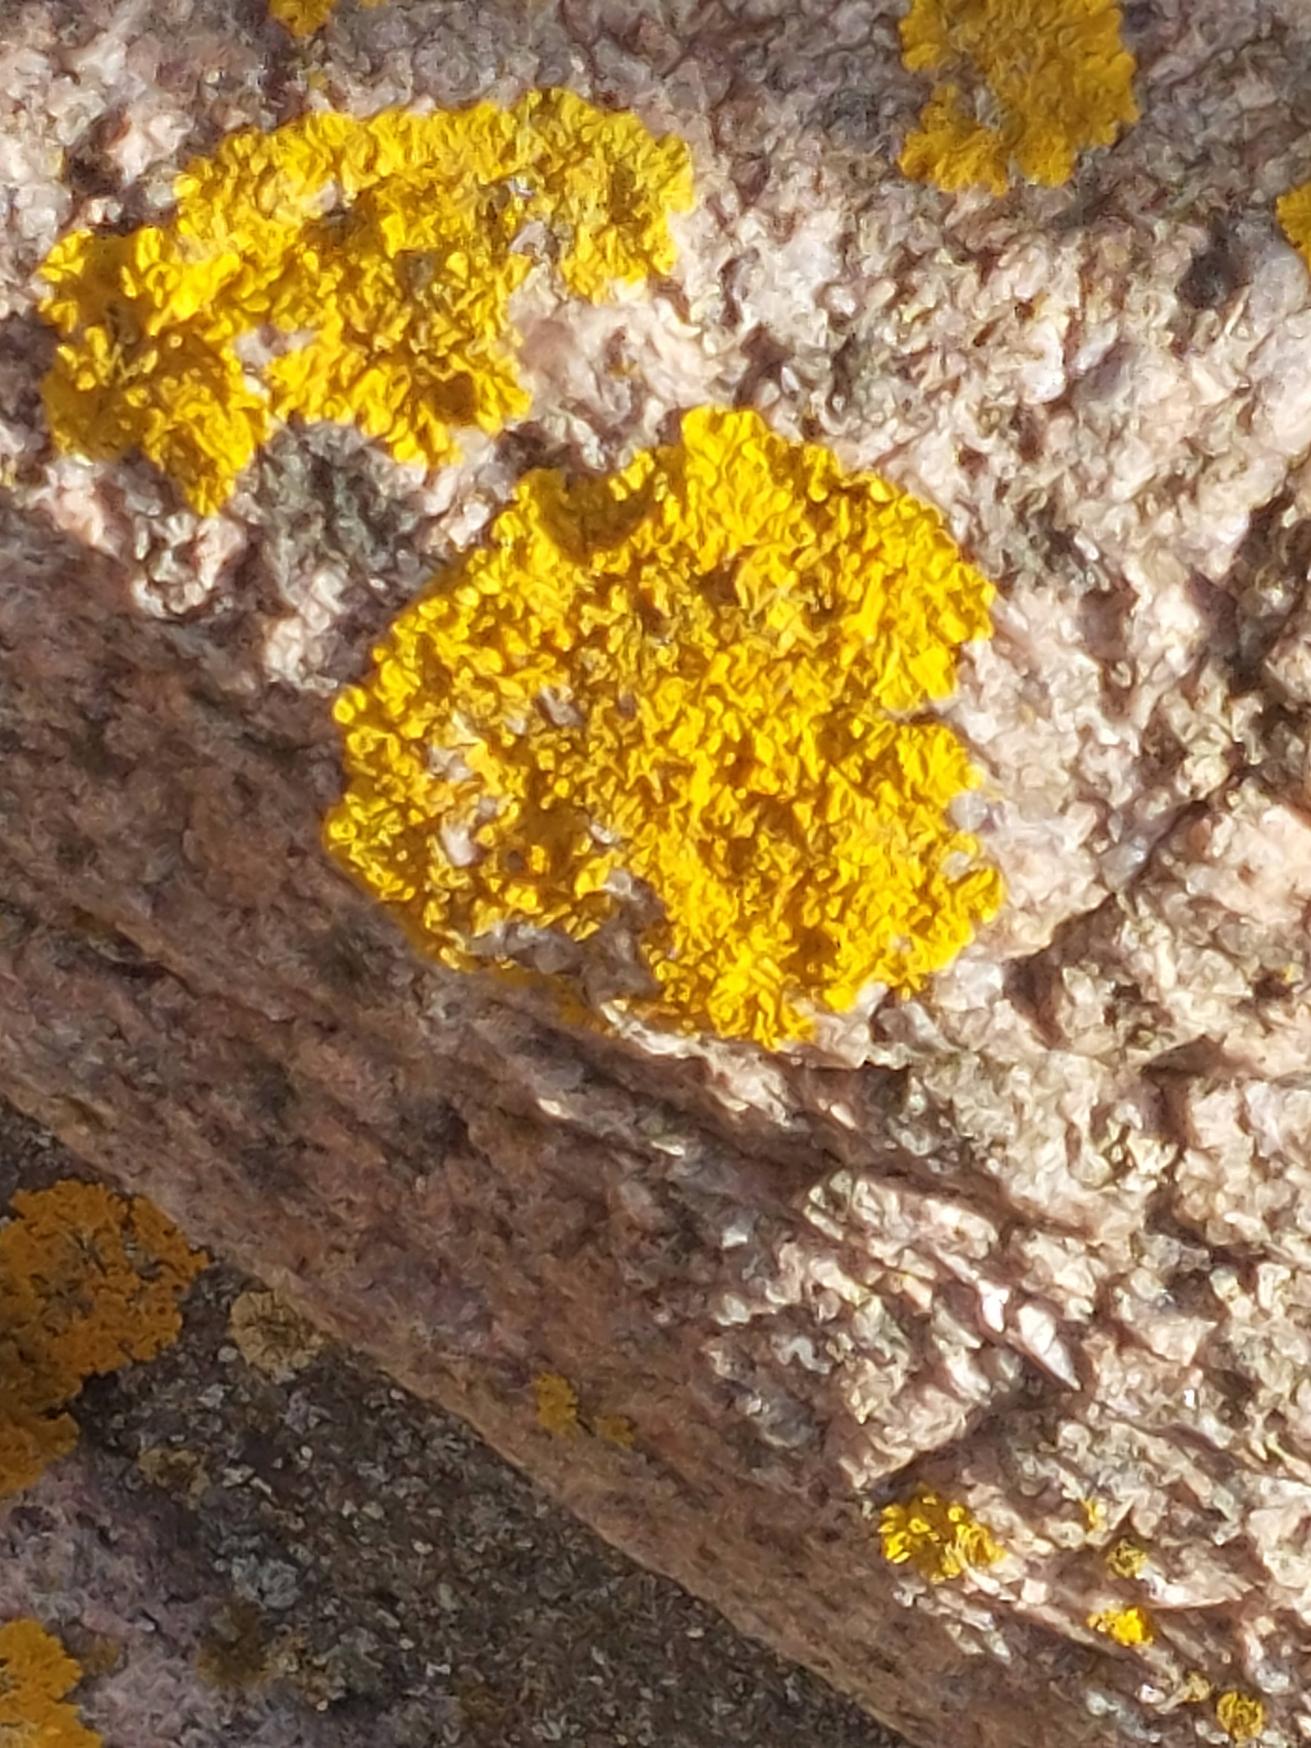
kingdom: Fungi
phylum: Ascomycota
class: Lecanoromycetes
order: Teloschistales
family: Teloschistaceae
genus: Xanthoria
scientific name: Xanthoria parietina
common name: Almindelig væggelav
